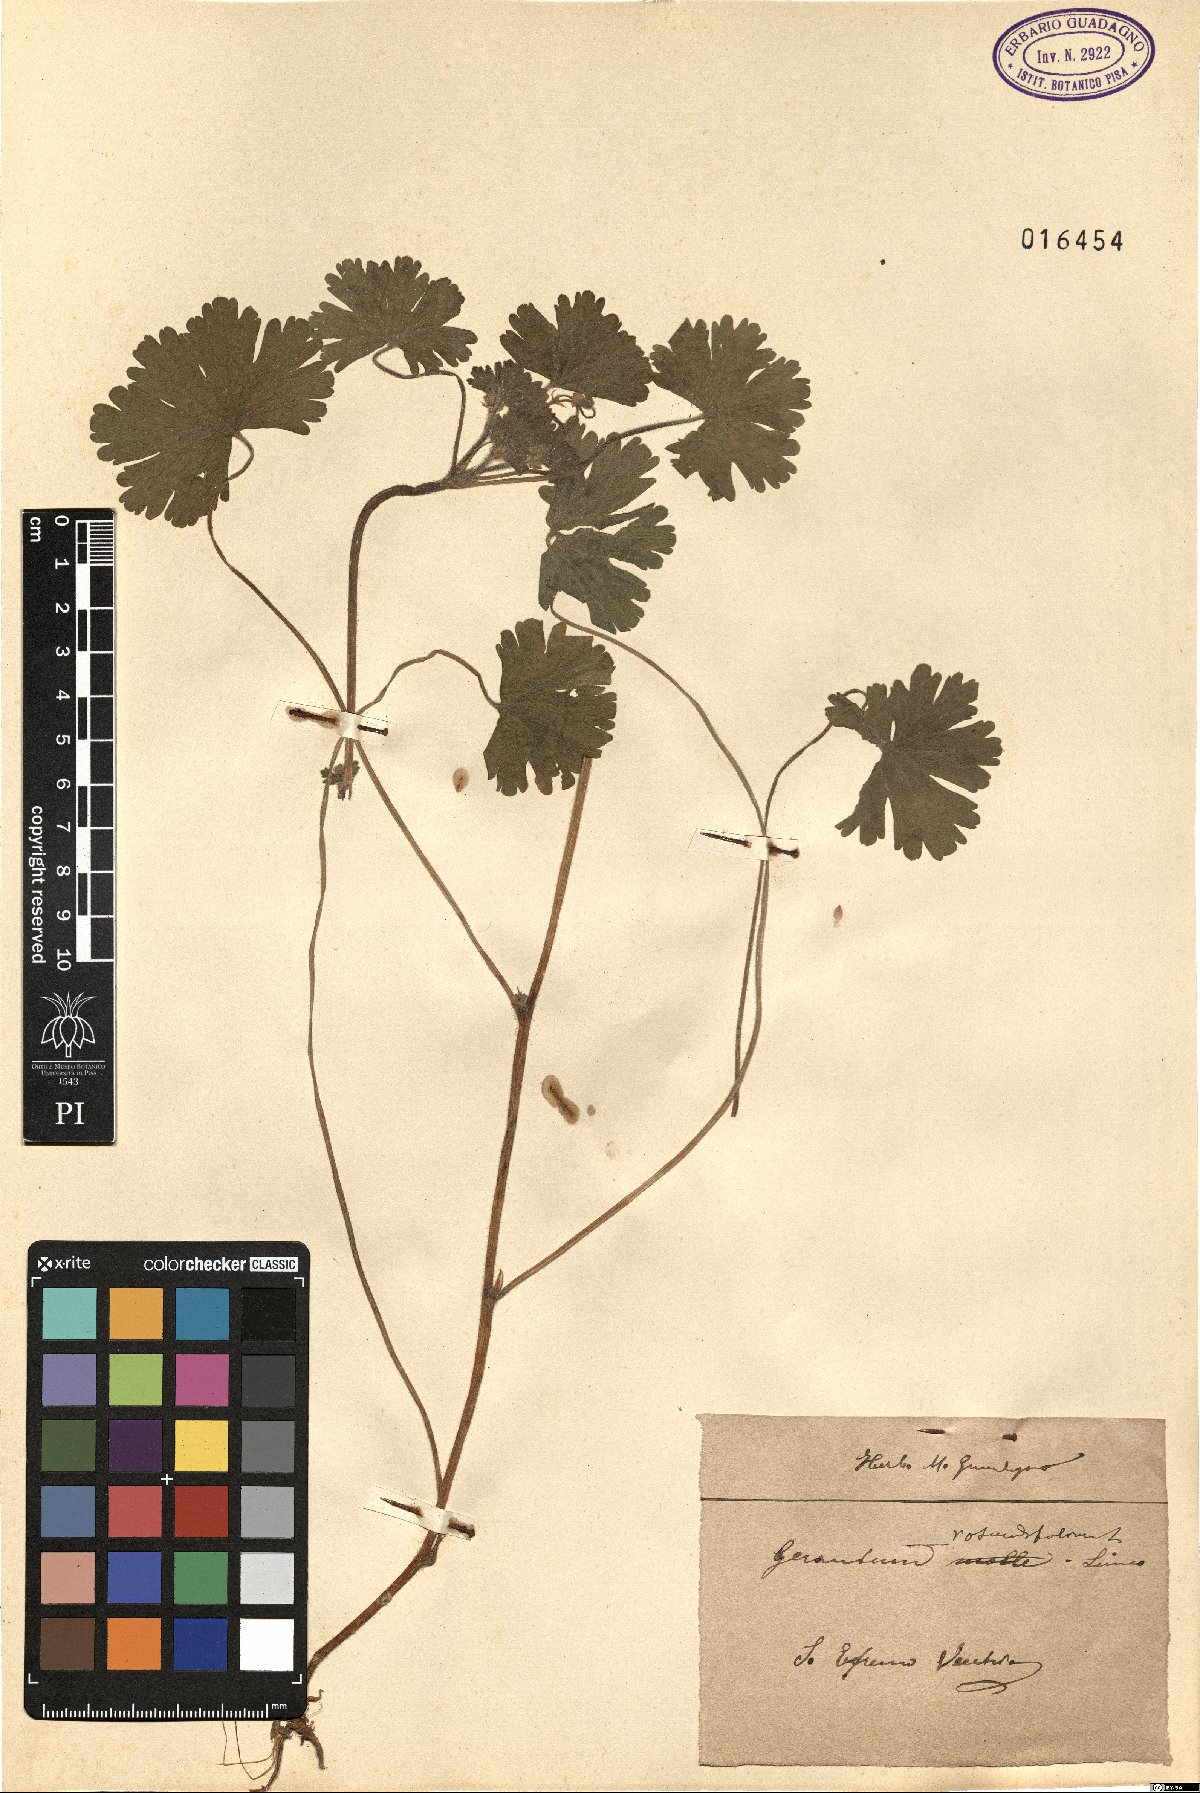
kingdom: Plantae
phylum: Tracheophyta
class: Magnoliopsida
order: Geraniales
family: Geraniaceae
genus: Geranium
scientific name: Geranium rotundifolium
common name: Round-leaved crane's-bill
